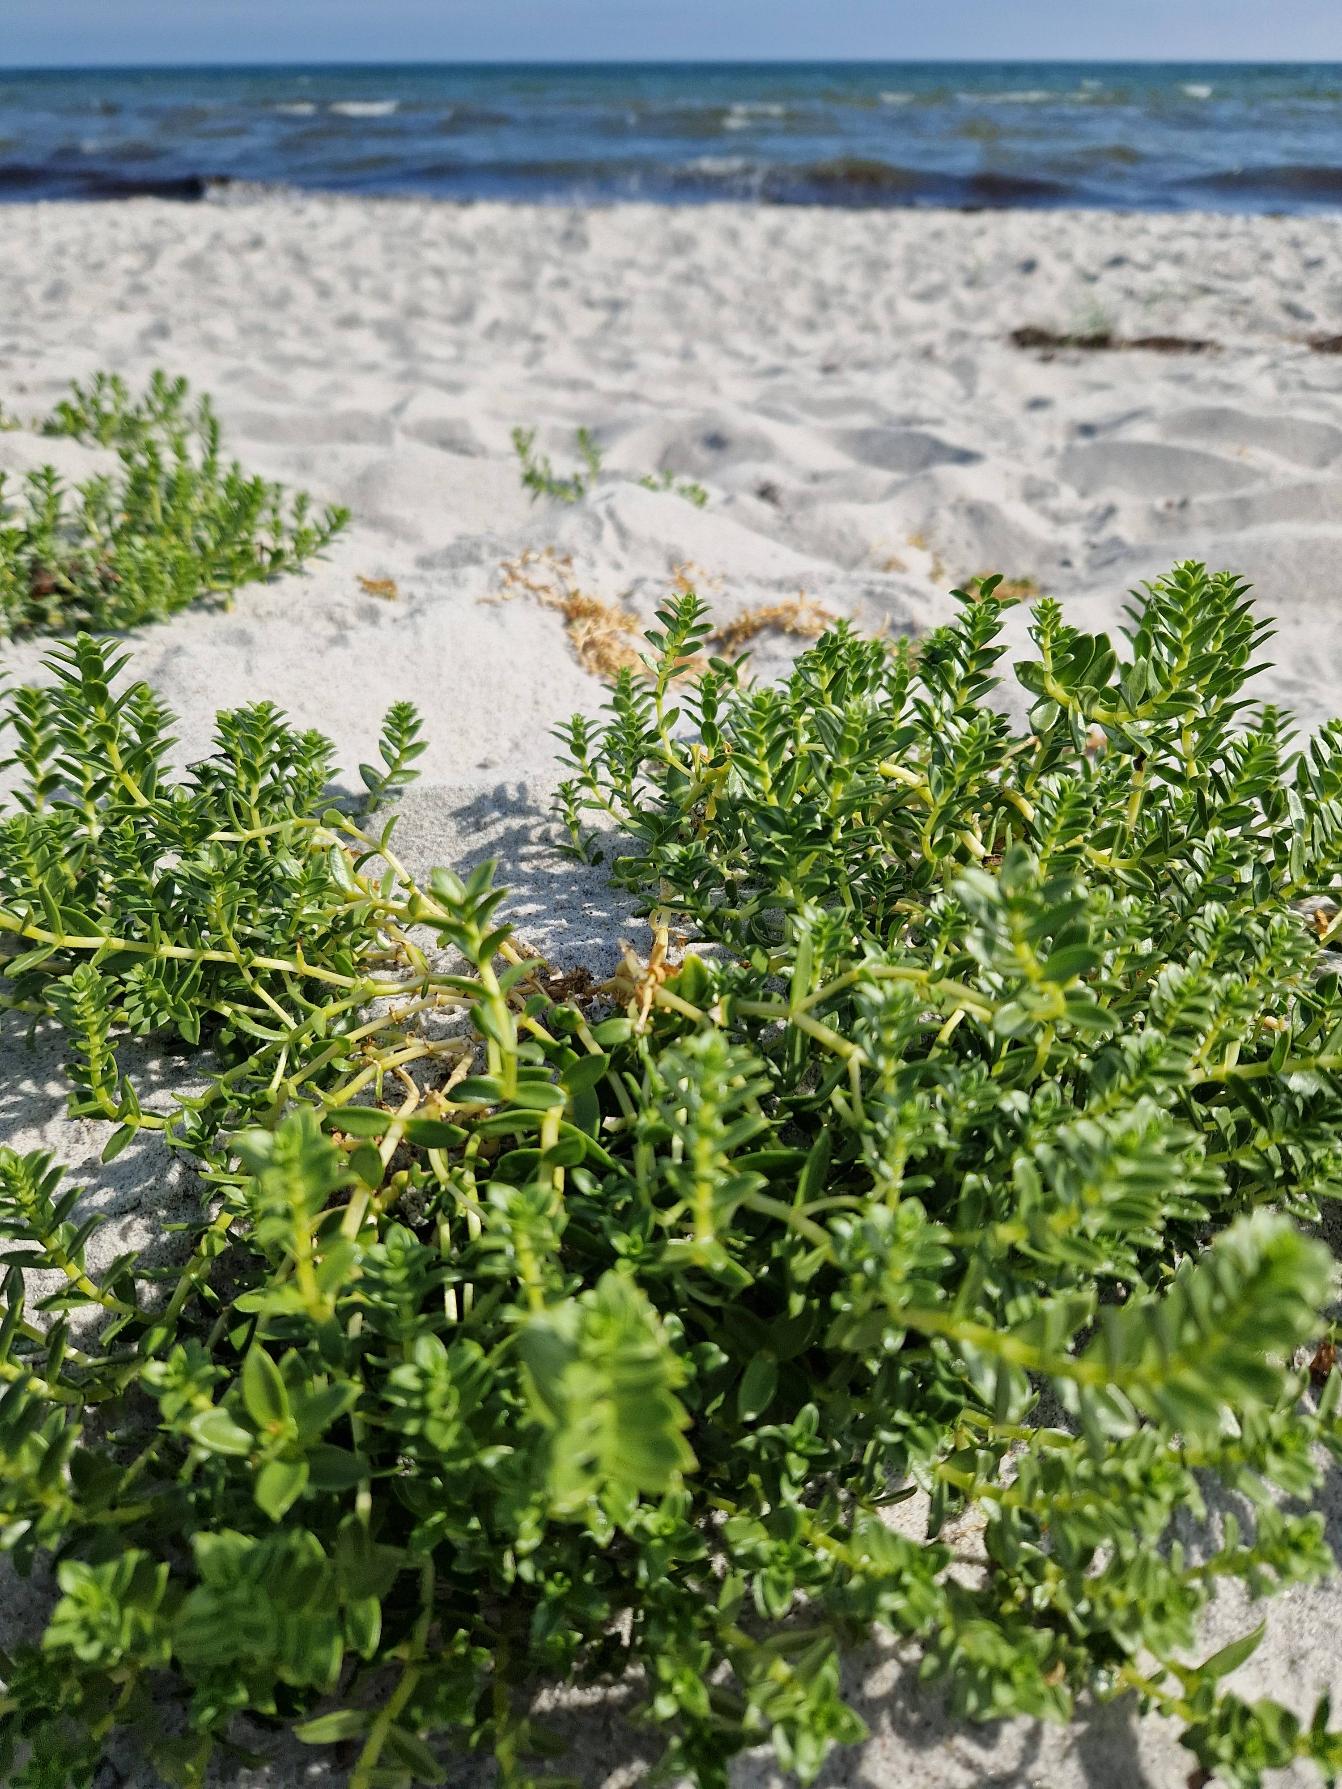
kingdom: Plantae
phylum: Tracheophyta
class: Magnoliopsida
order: Caryophyllales
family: Caryophyllaceae
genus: Honckenya
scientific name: Honckenya peploides
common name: Strandarve
